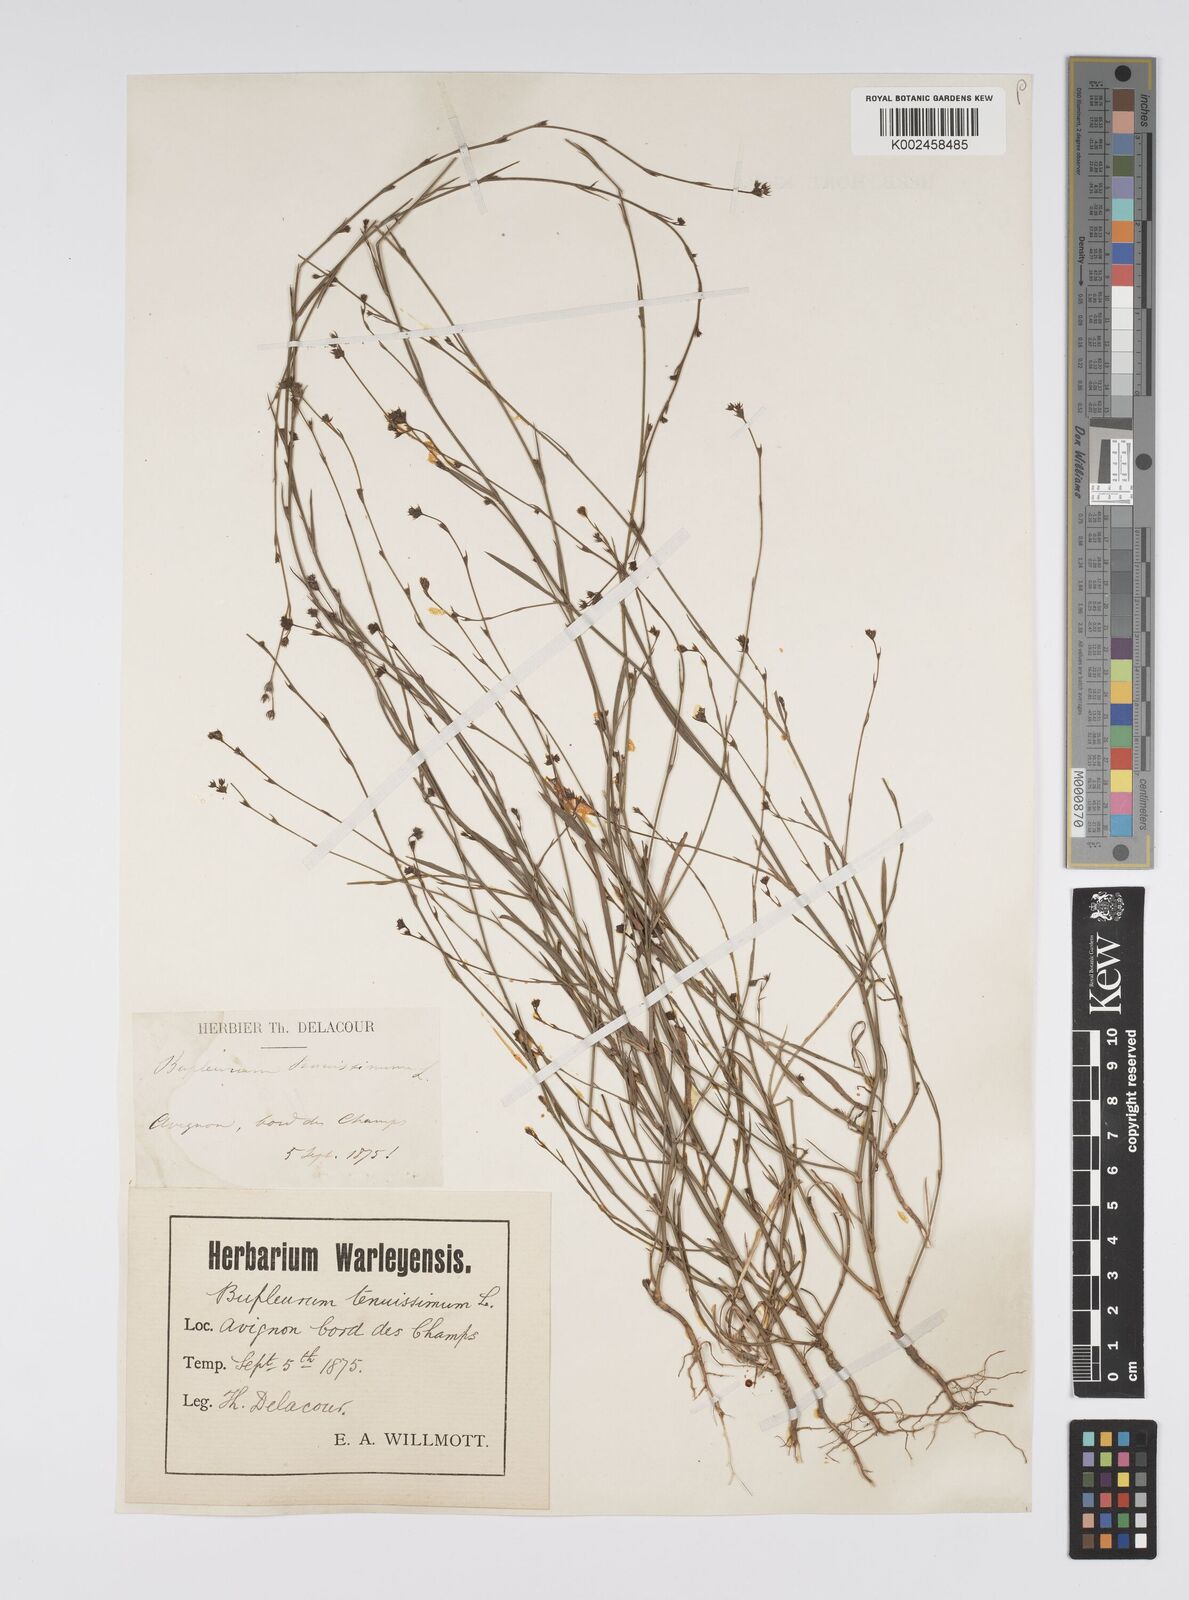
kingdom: Plantae
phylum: Tracheophyta
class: Magnoliopsida
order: Apiales
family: Apiaceae
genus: Bupleurum
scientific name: Bupleurum tenuissimum
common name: Slender hare's-ear
